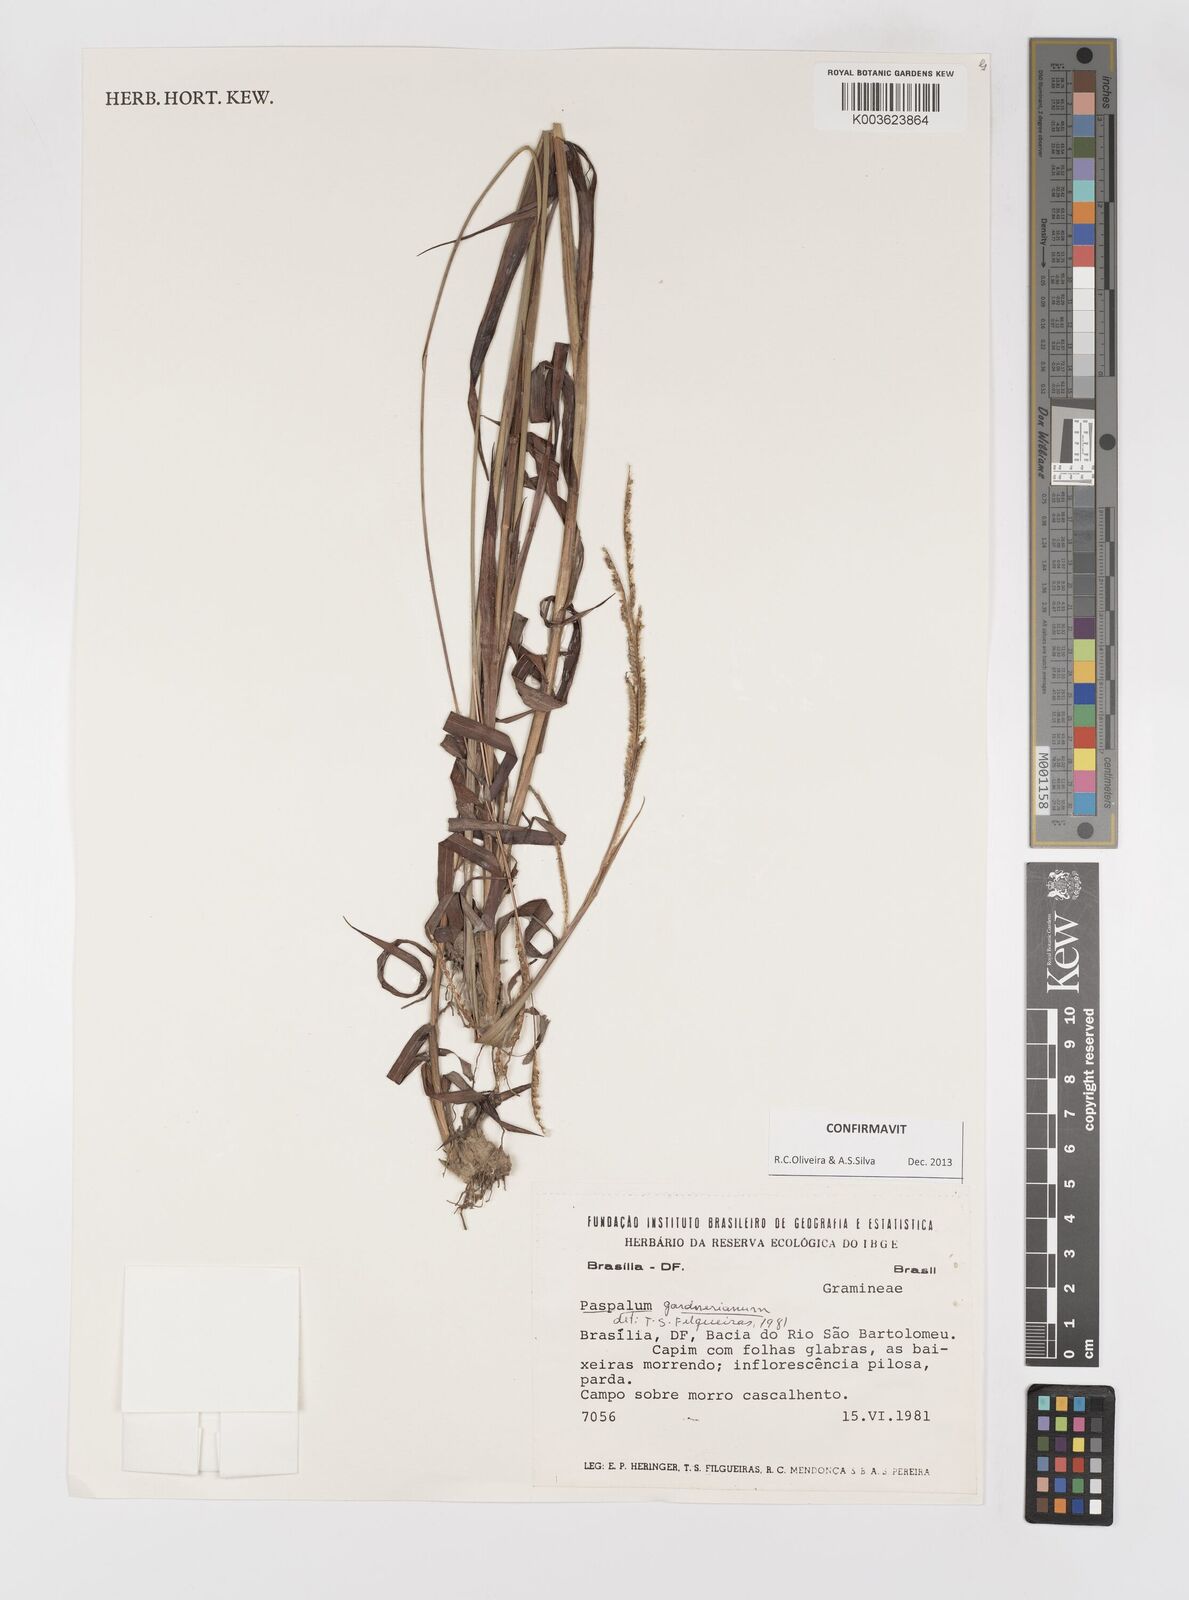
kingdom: Plantae
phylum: Tracheophyta
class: Liliopsida
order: Poales
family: Poaceae
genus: Paspalum
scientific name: Paspalum gardnerianum
